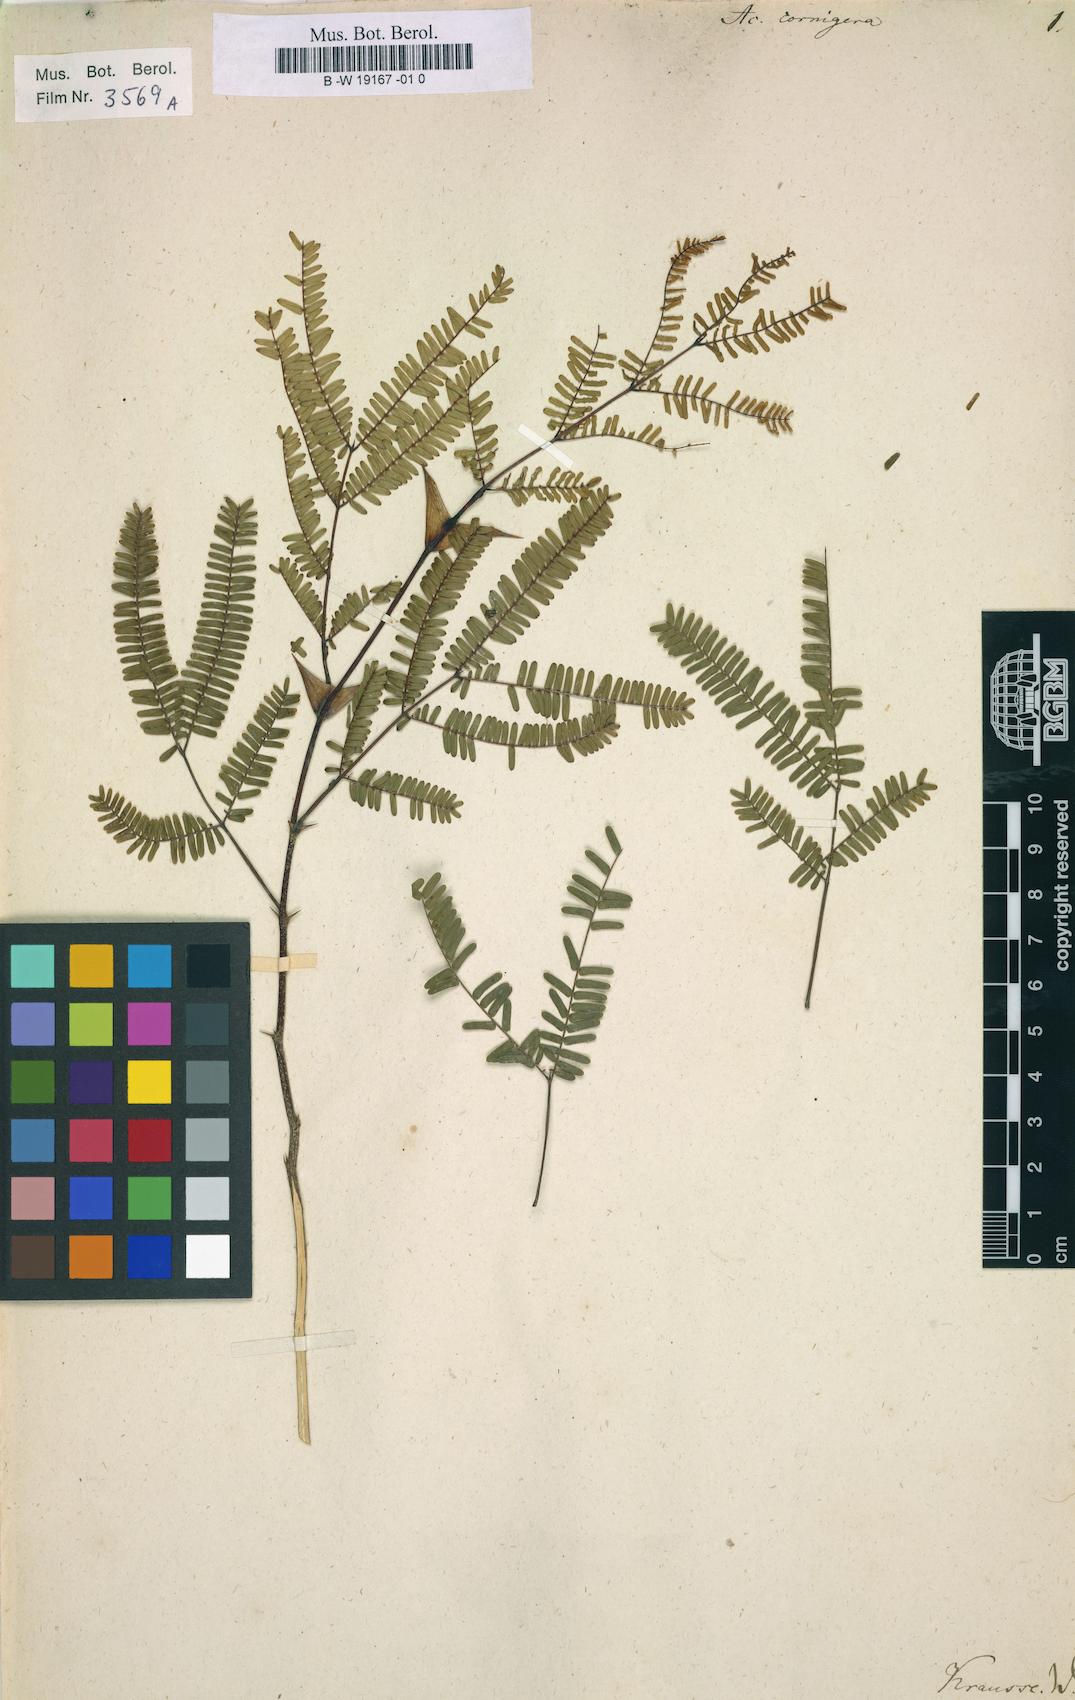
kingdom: Plantae
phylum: Tracheophyta
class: Magnoliopsida
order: Fabales
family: Fabaceae
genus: Vachellia
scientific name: Vachellia cornigera
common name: Bullhorn wattle
